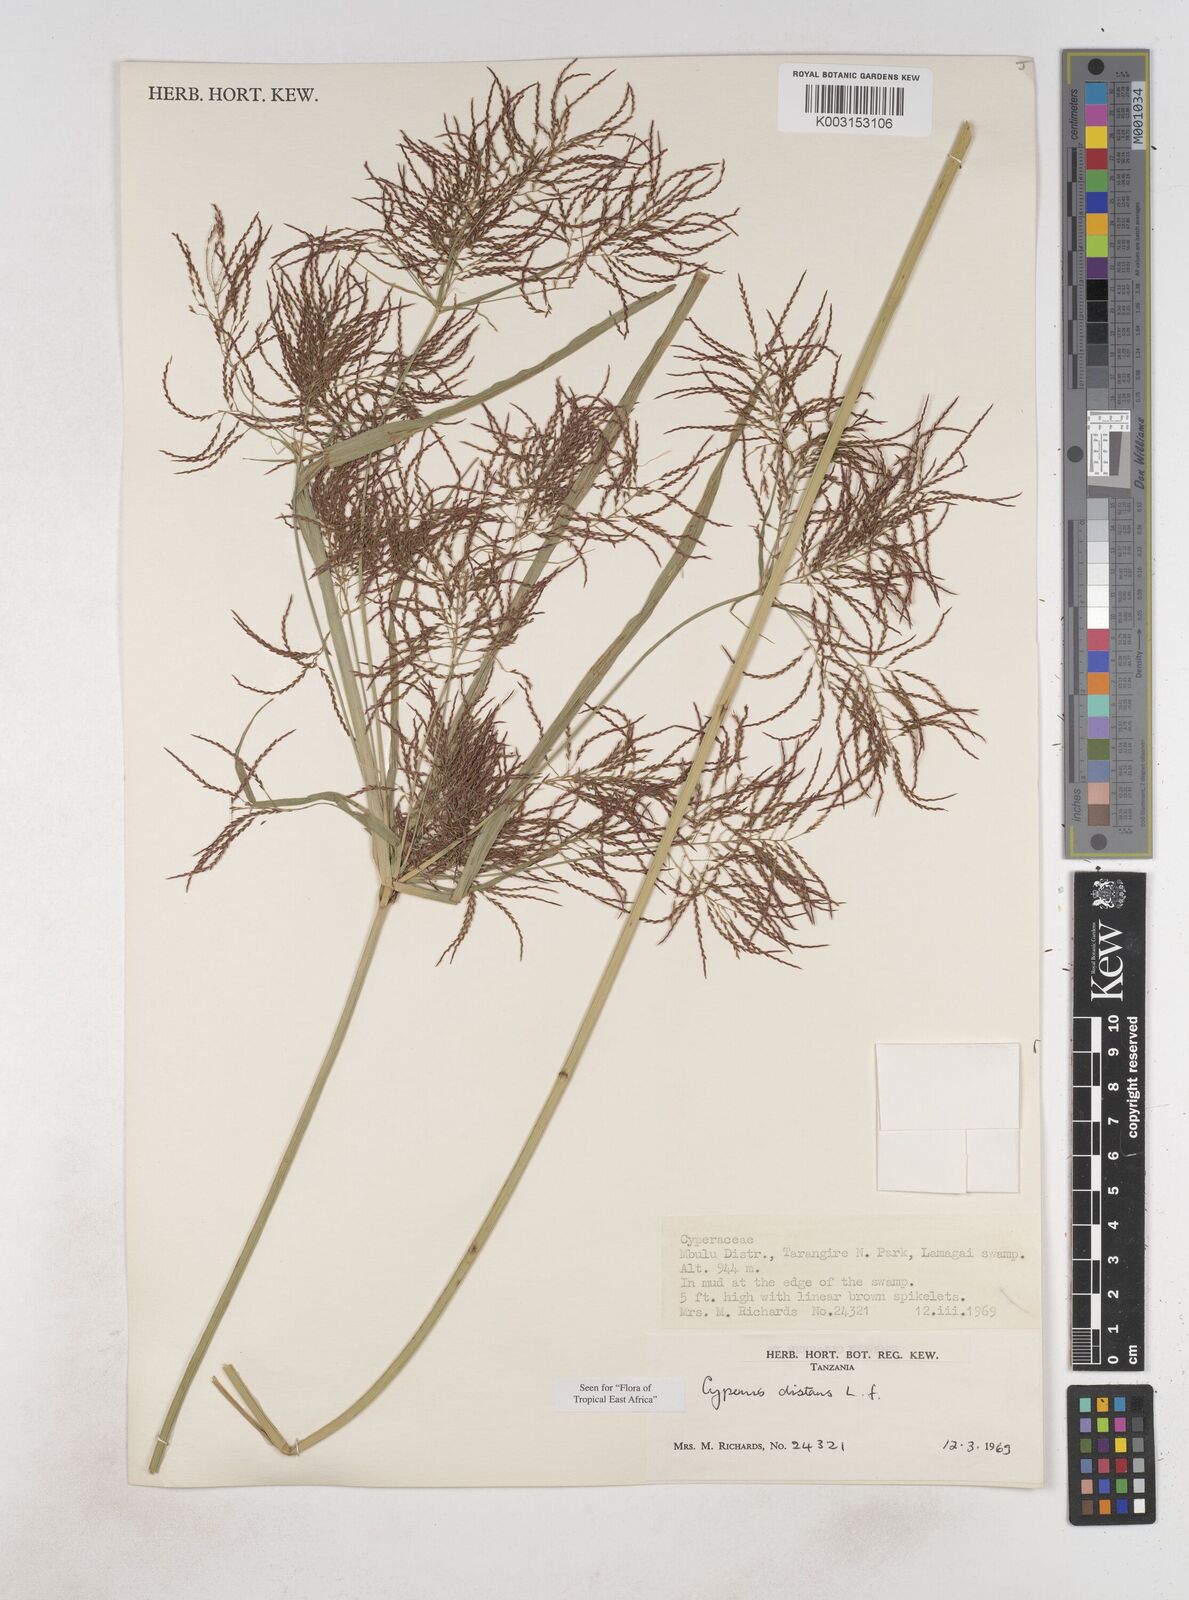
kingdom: Plantae
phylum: Tracheophyta
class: Liliopsida
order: Poales
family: Cyperaceae
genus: Cyperus
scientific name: Cyperus distans
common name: Slender cyperus
